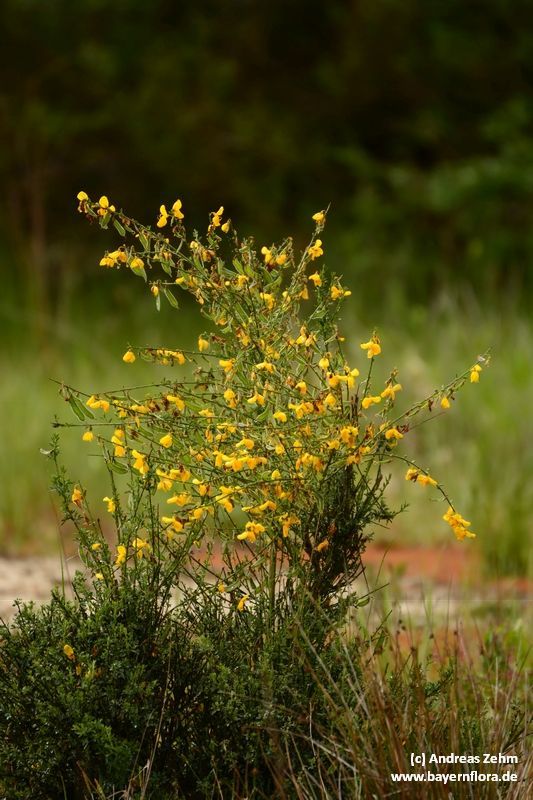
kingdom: Plantae
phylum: Tracheophyta
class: Magnoliopsida
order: Fabales
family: Fabaceae
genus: Cytisus
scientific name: Cytisus scoparius
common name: Scotch broom
